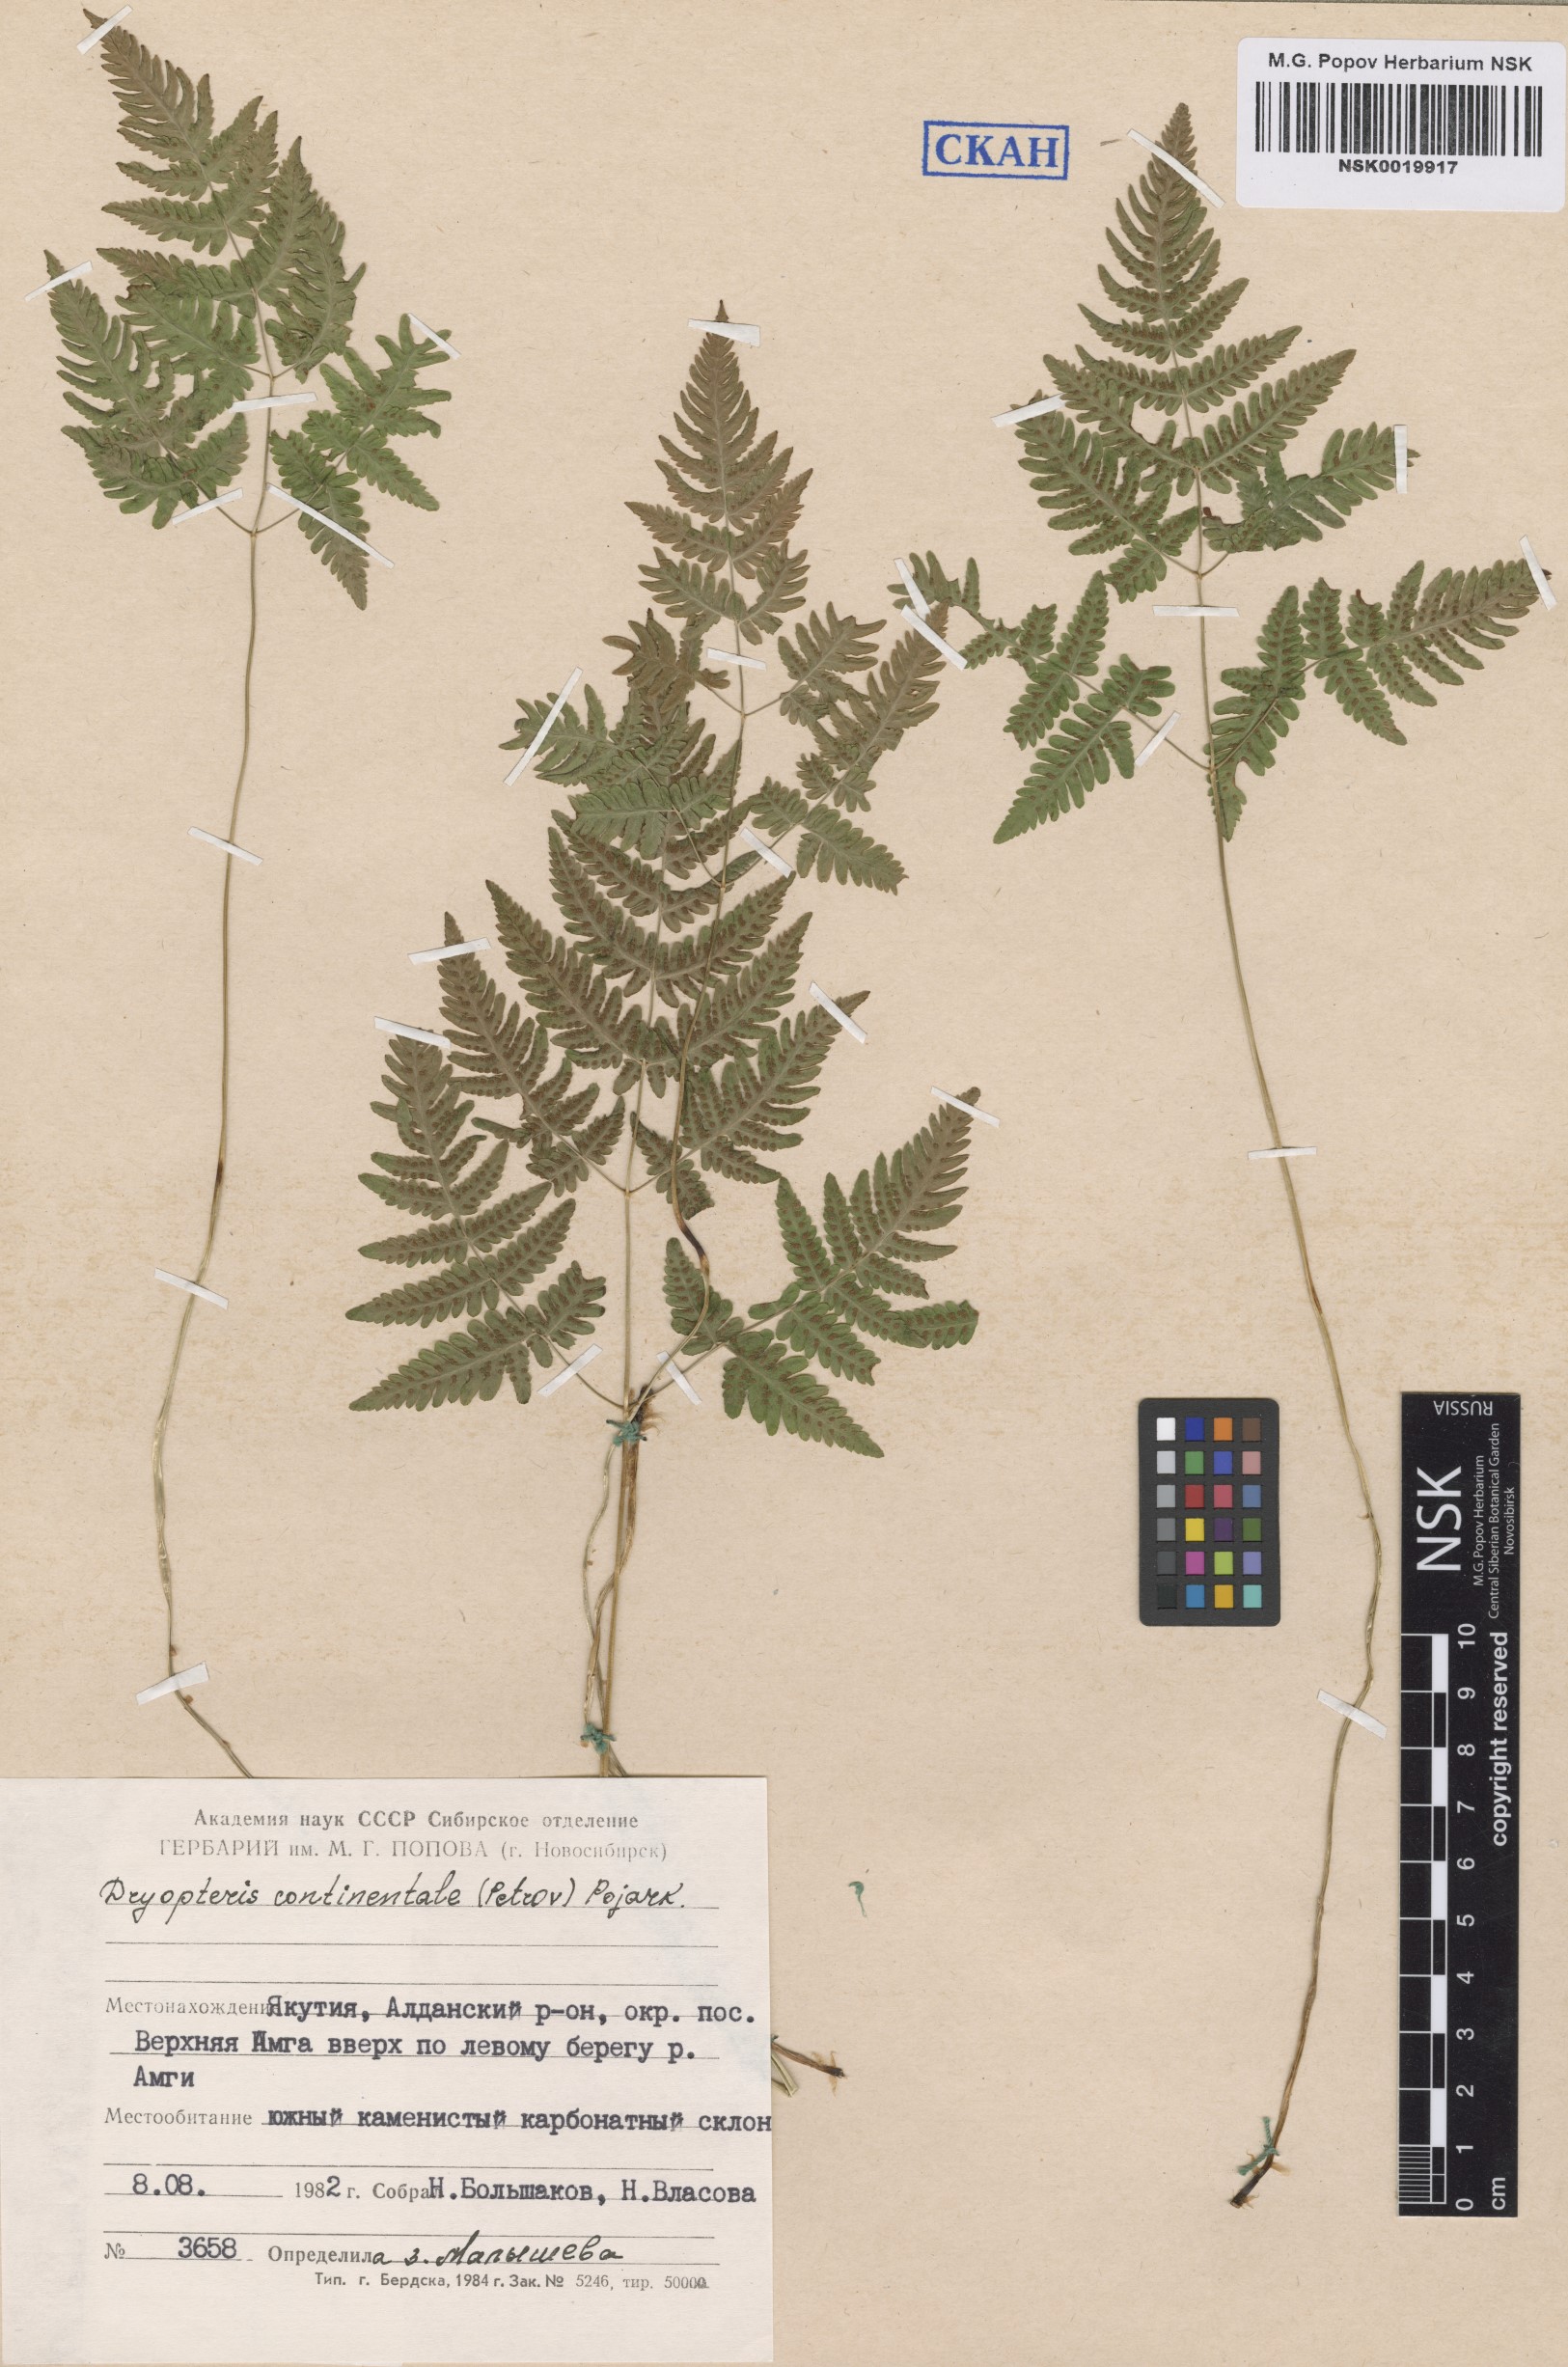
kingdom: Plantae
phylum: Tracheophyta
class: Polypodiopsida
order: Polypodiales
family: Cystopteridaceae
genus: Gymnocarpium
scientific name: Gymnocarpium continentale
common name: Asian oak fern
